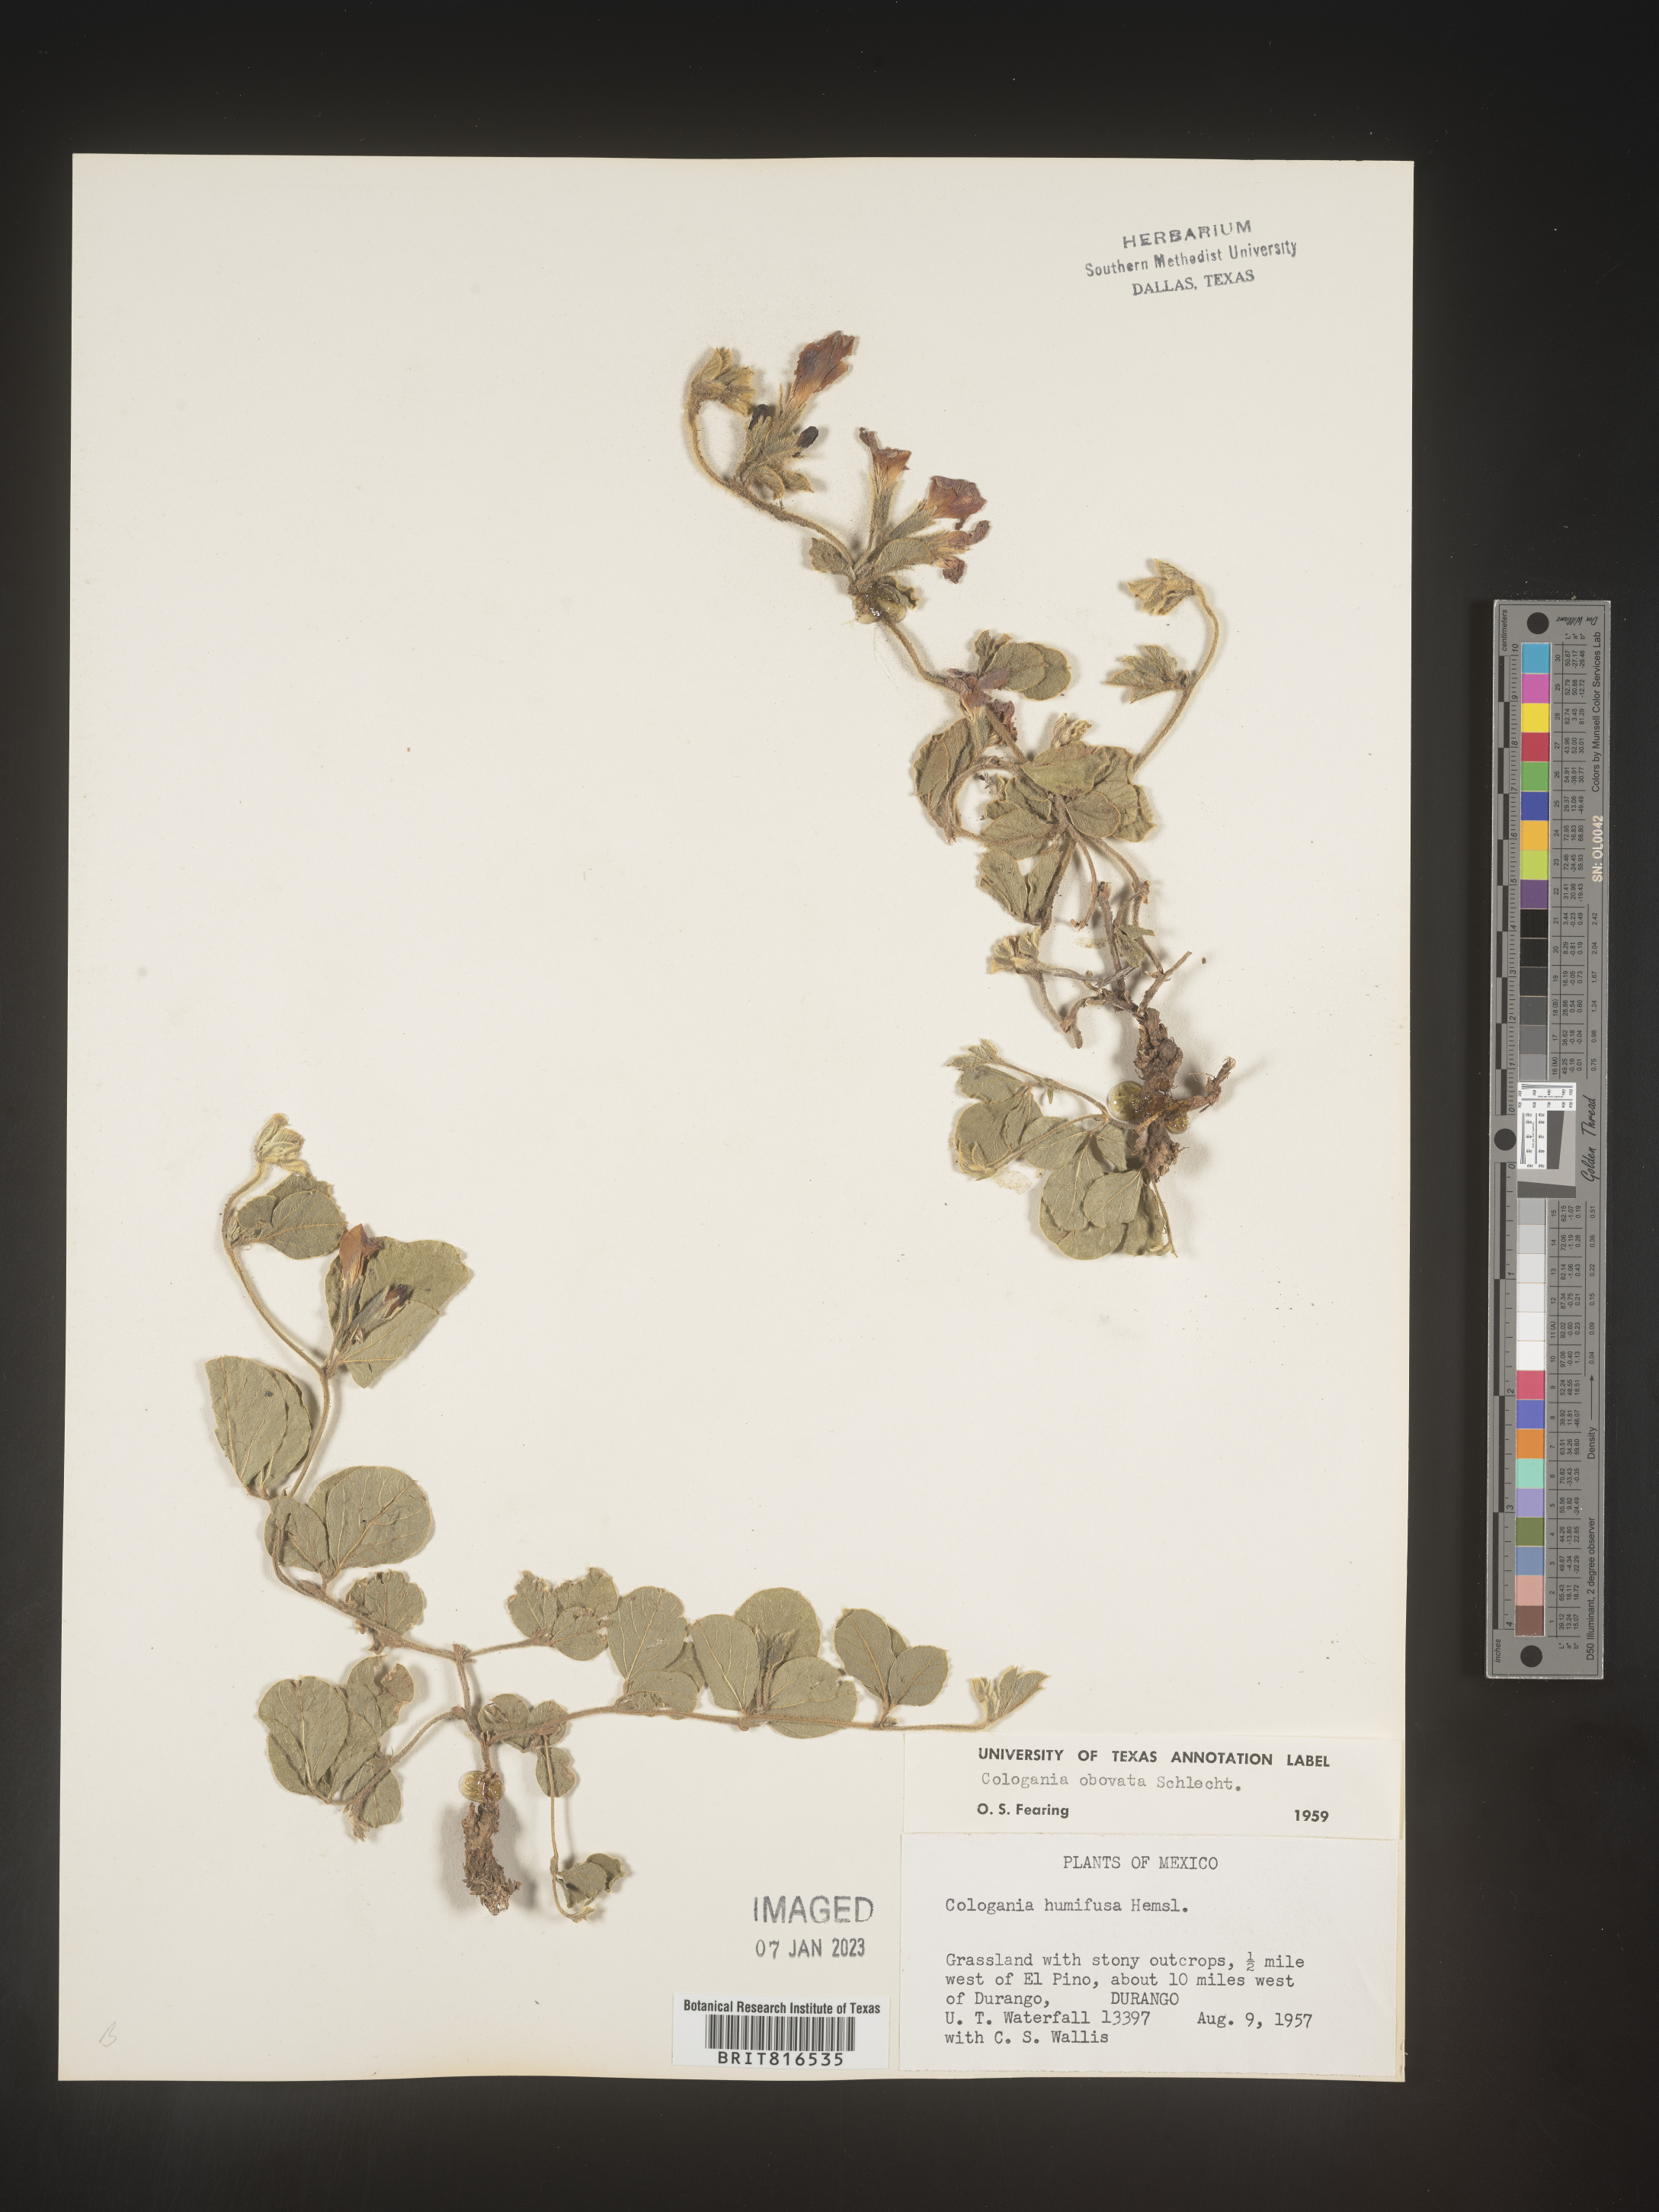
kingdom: Plantae
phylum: Tracheophyta
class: Magnoliopsida
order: Fabales
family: Fabaceae
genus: Cologania
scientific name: Cologania obovata
